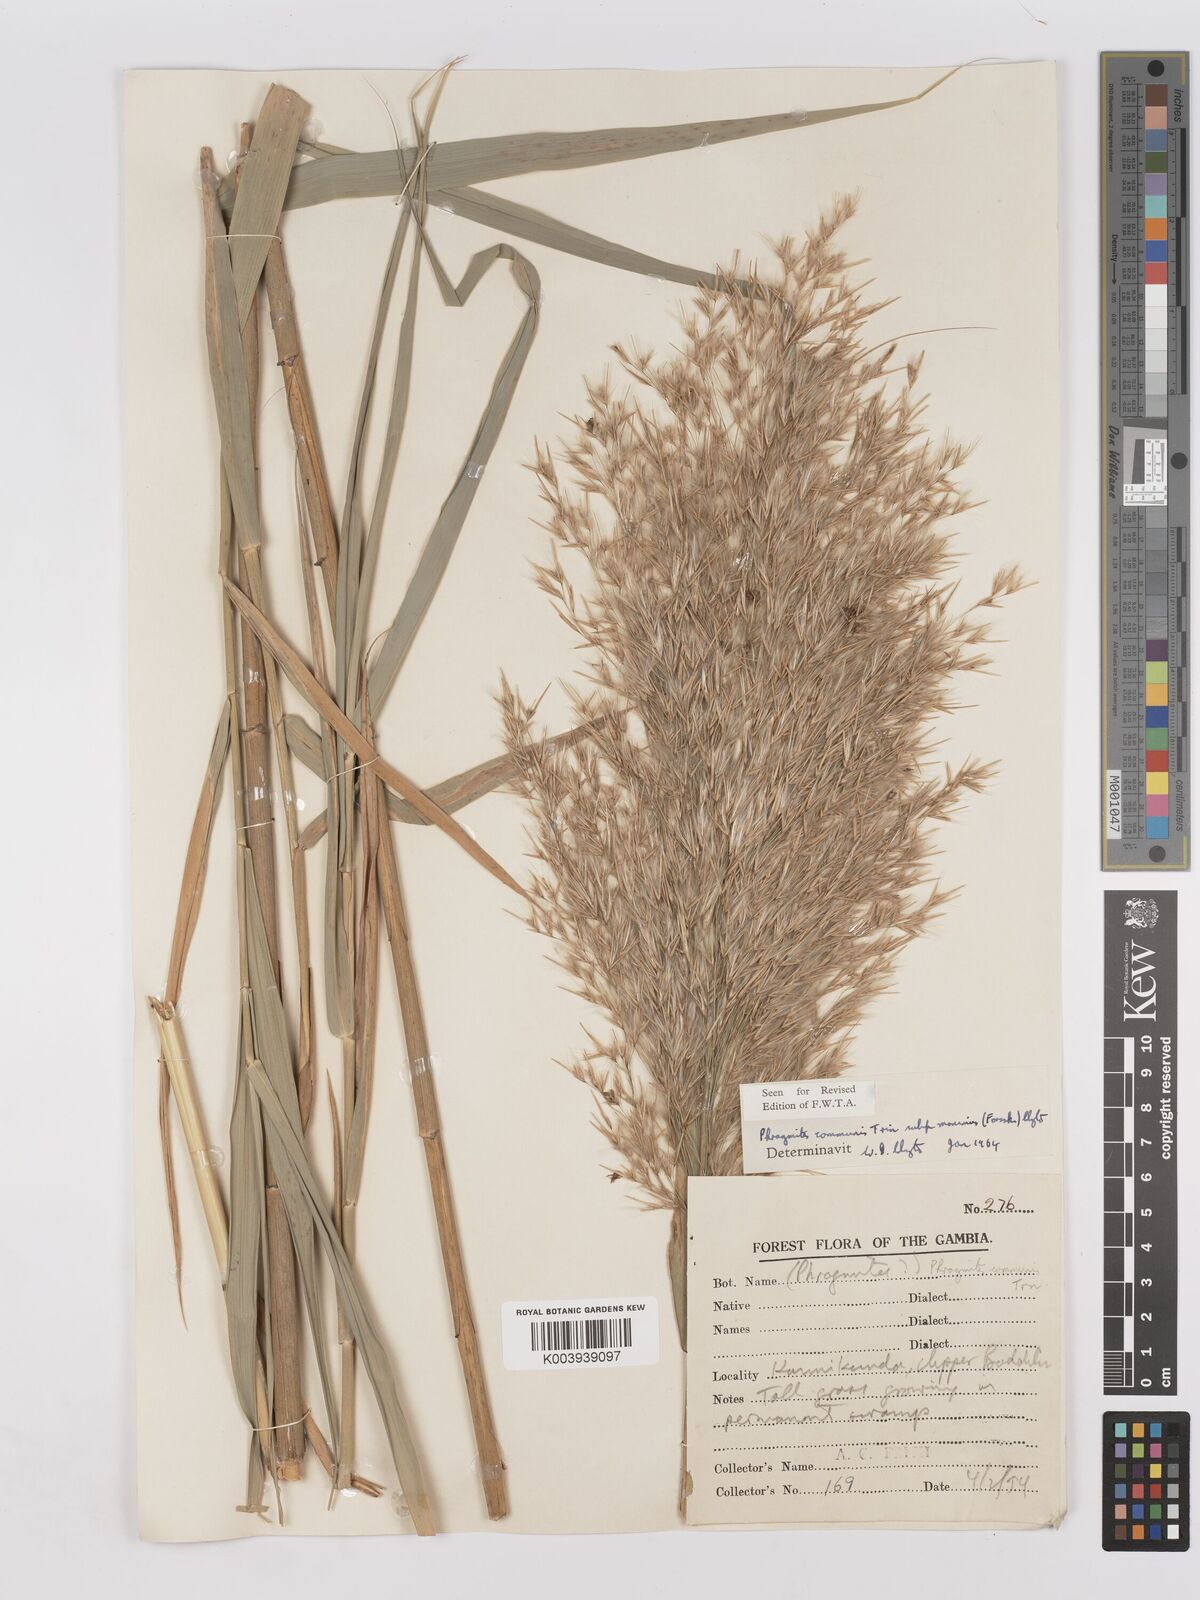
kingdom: Plantae
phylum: Tracheophyta
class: Liliopsida
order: Poales
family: Poaceae
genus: Phragmites
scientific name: Phragmites australis
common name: Common reed
